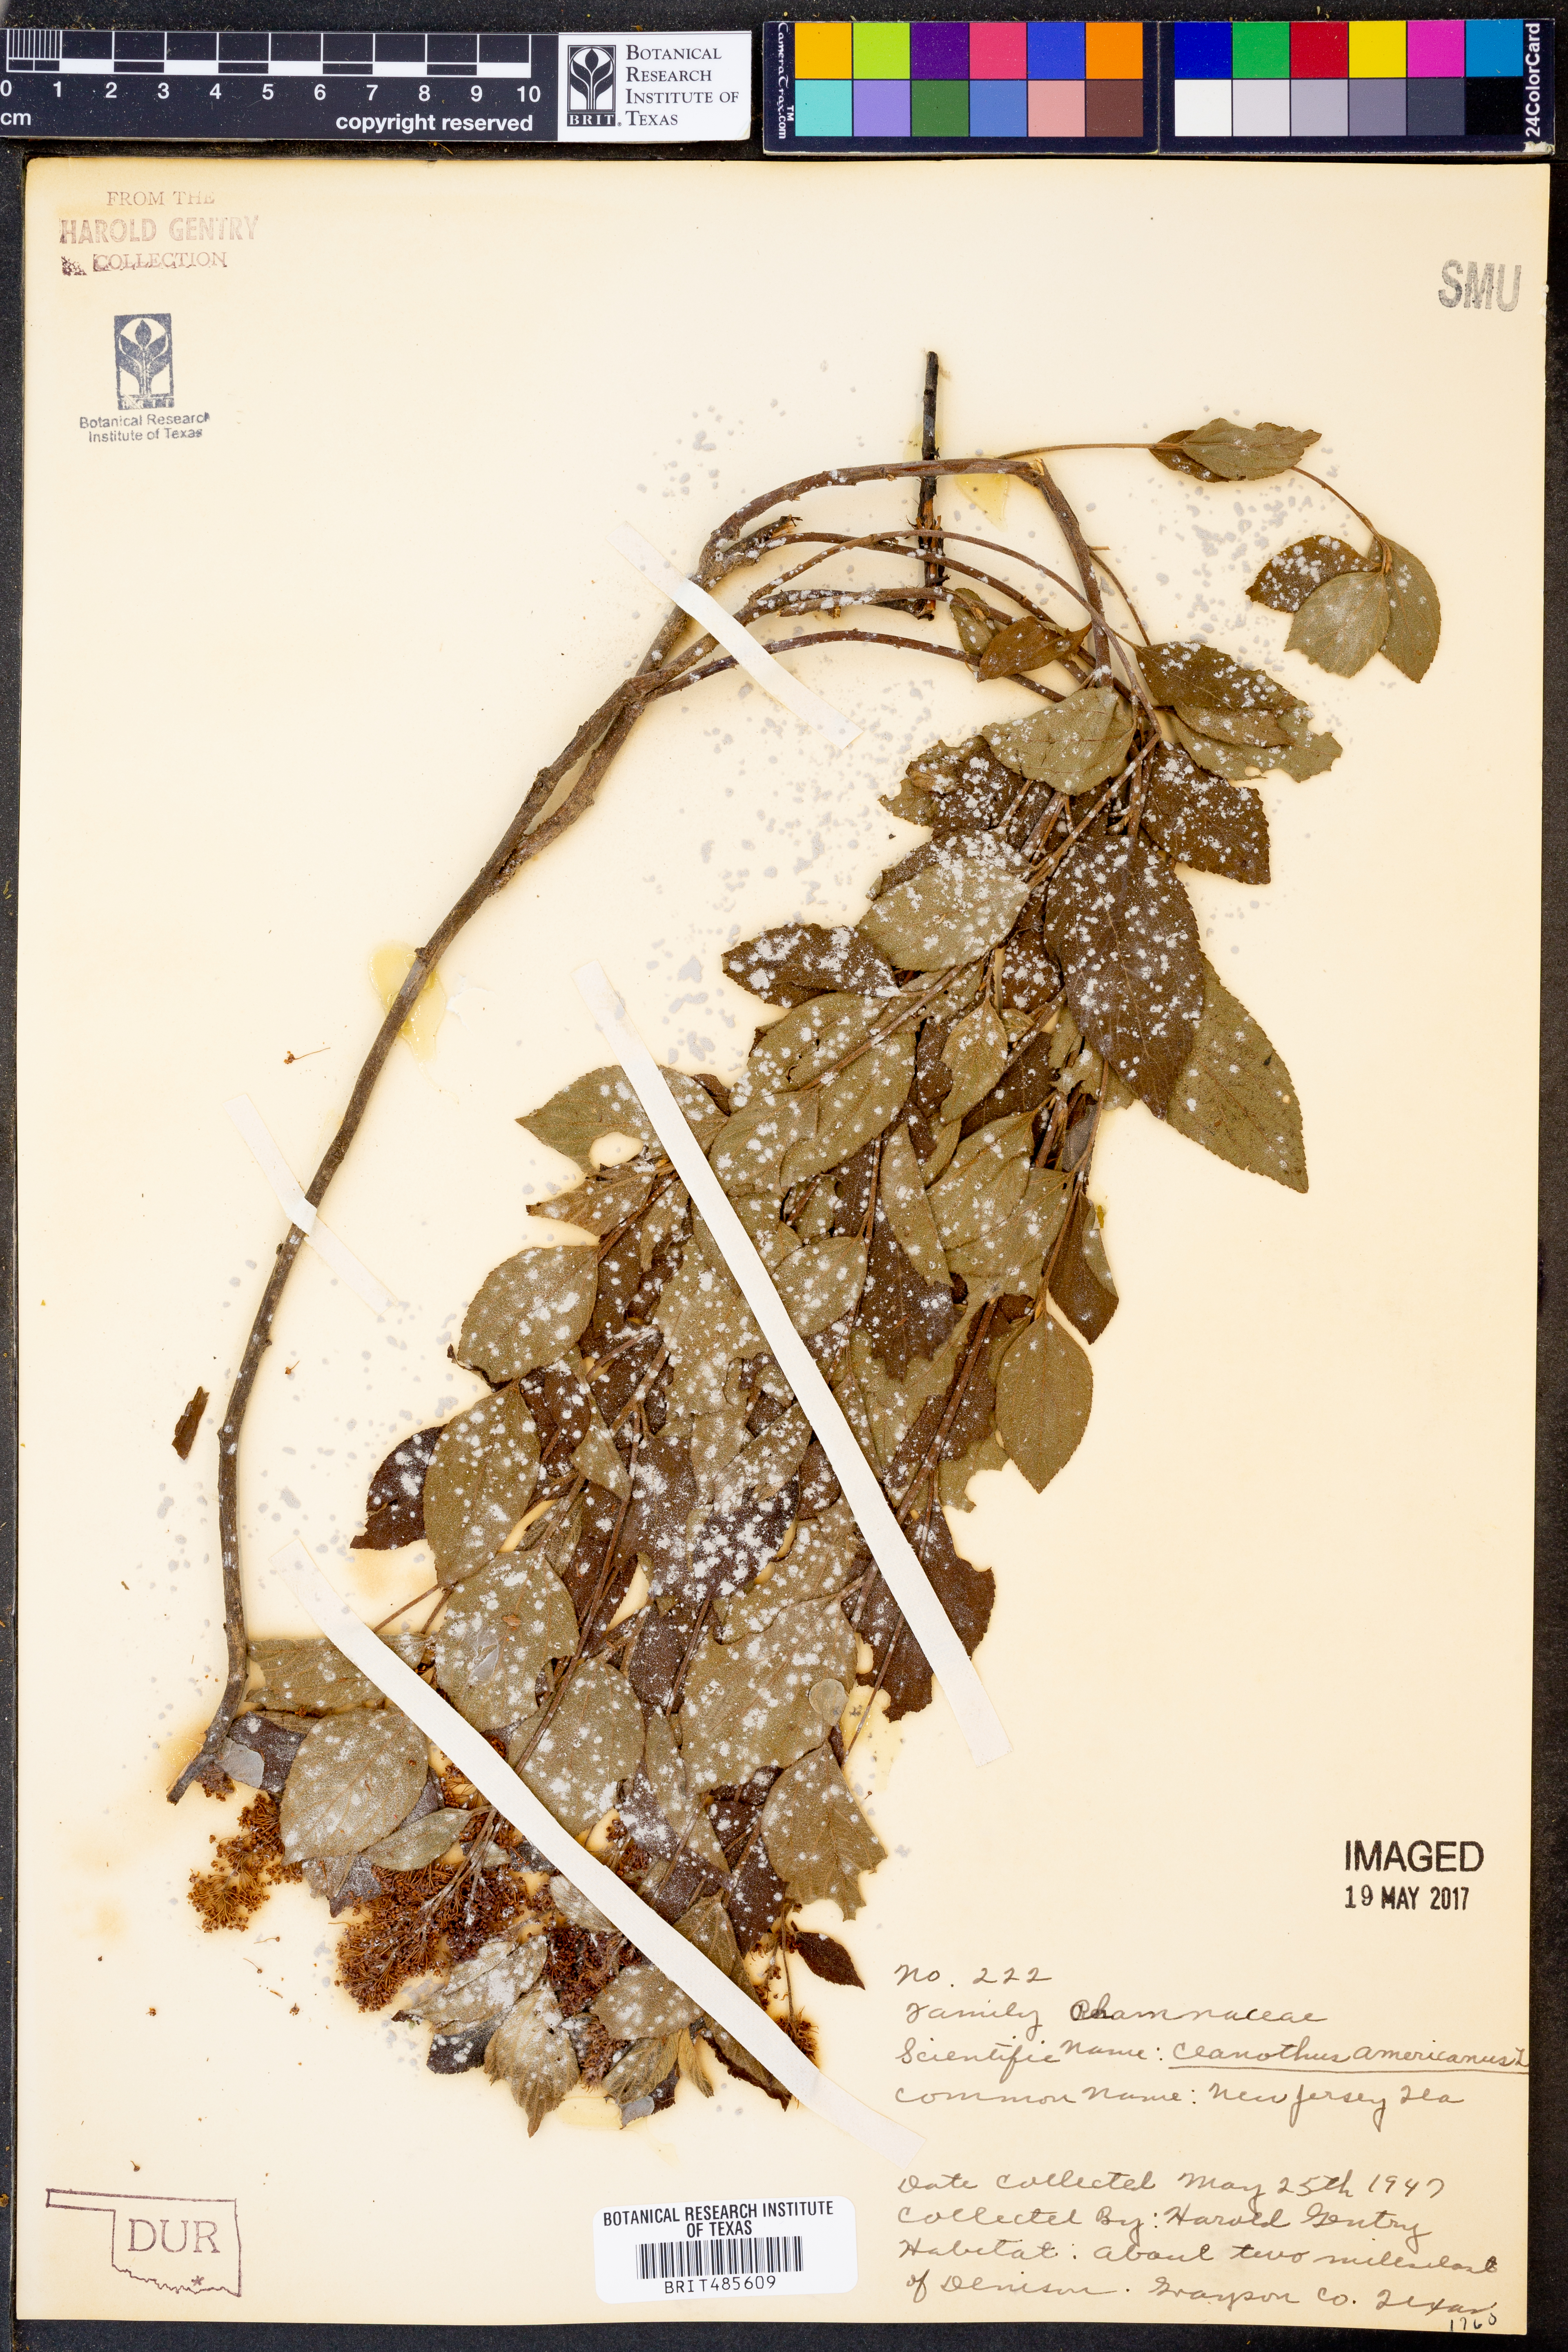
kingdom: Plantae
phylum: Tracheophyta
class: Magnoliopsida
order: Rosales
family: Rhamnaceae
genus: Ceanothus
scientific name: Ceanothus americanus
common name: Redroot
